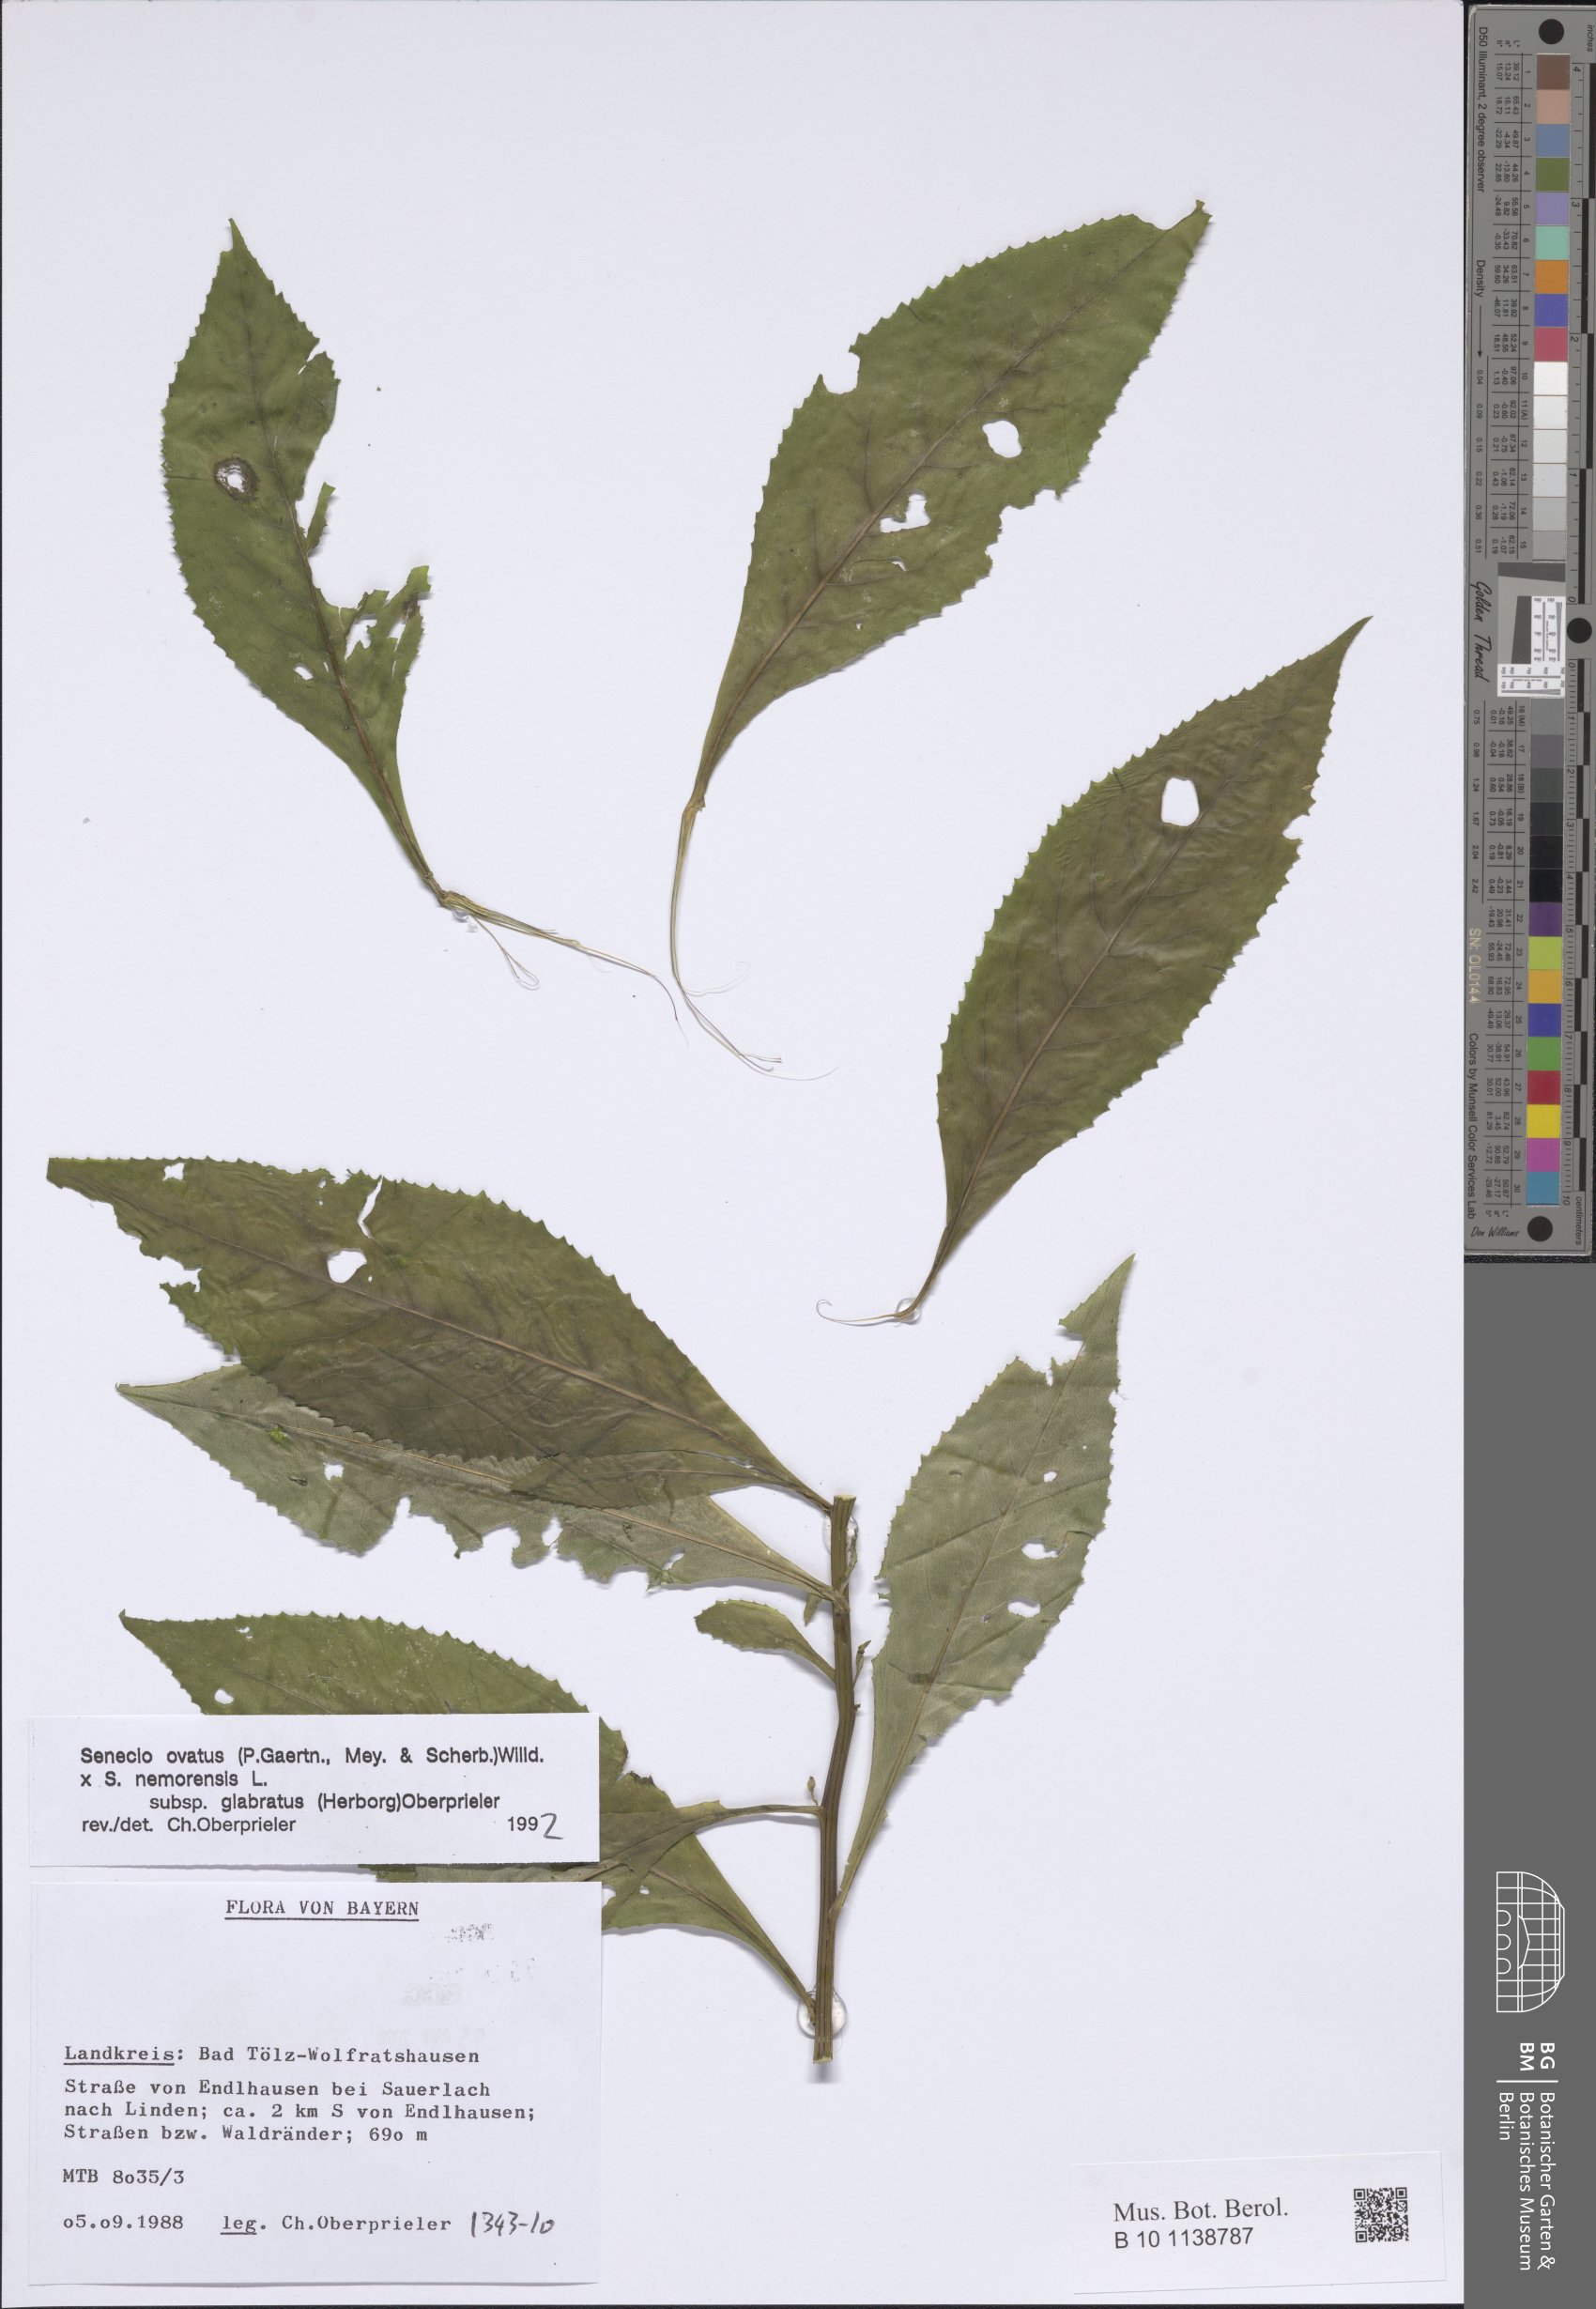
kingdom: Plantae
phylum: Tracheophyta
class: Magnoliopsida
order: Asterales
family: Asteraceae
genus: Senecio
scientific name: Senecio ovatus
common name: Wood ragwort
